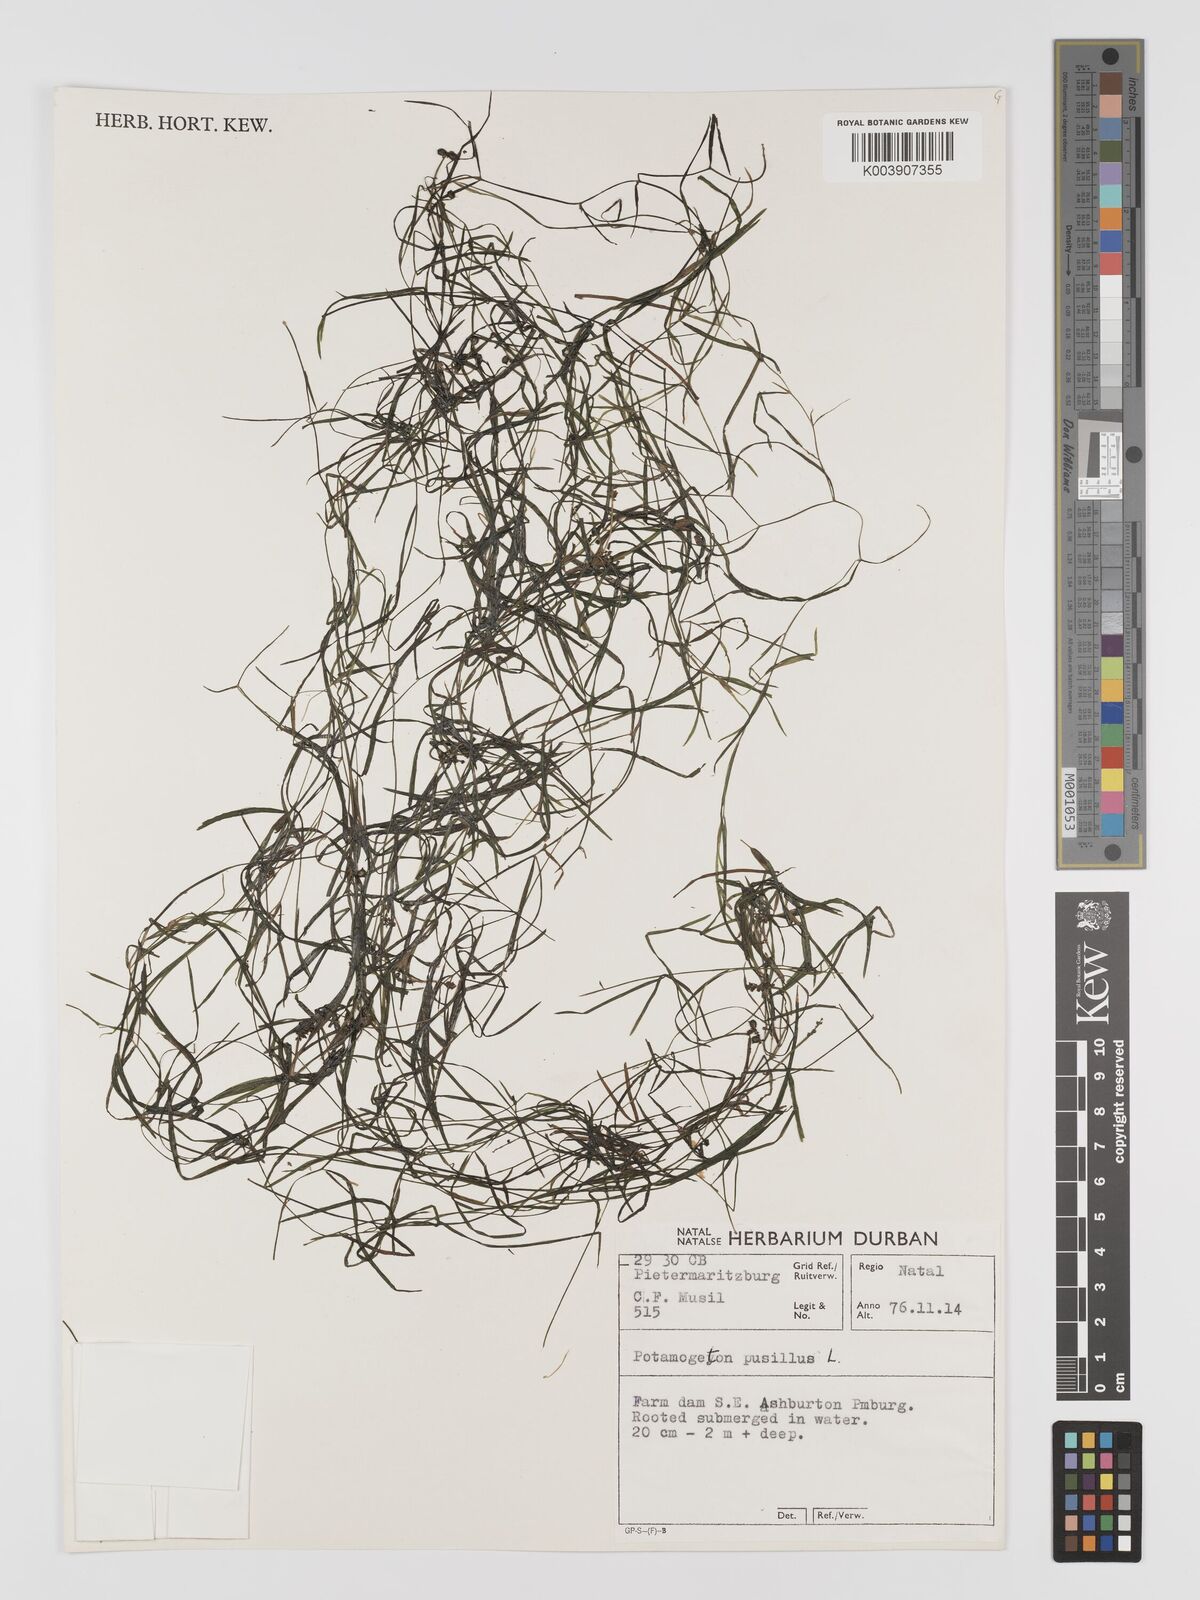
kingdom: Plantae
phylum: Tracheophyta
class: Liliopsida
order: Alismatales
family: Potamogetonaceae
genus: Potamogeton
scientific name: Potamogeton pusillus
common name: Lesser pondweed
